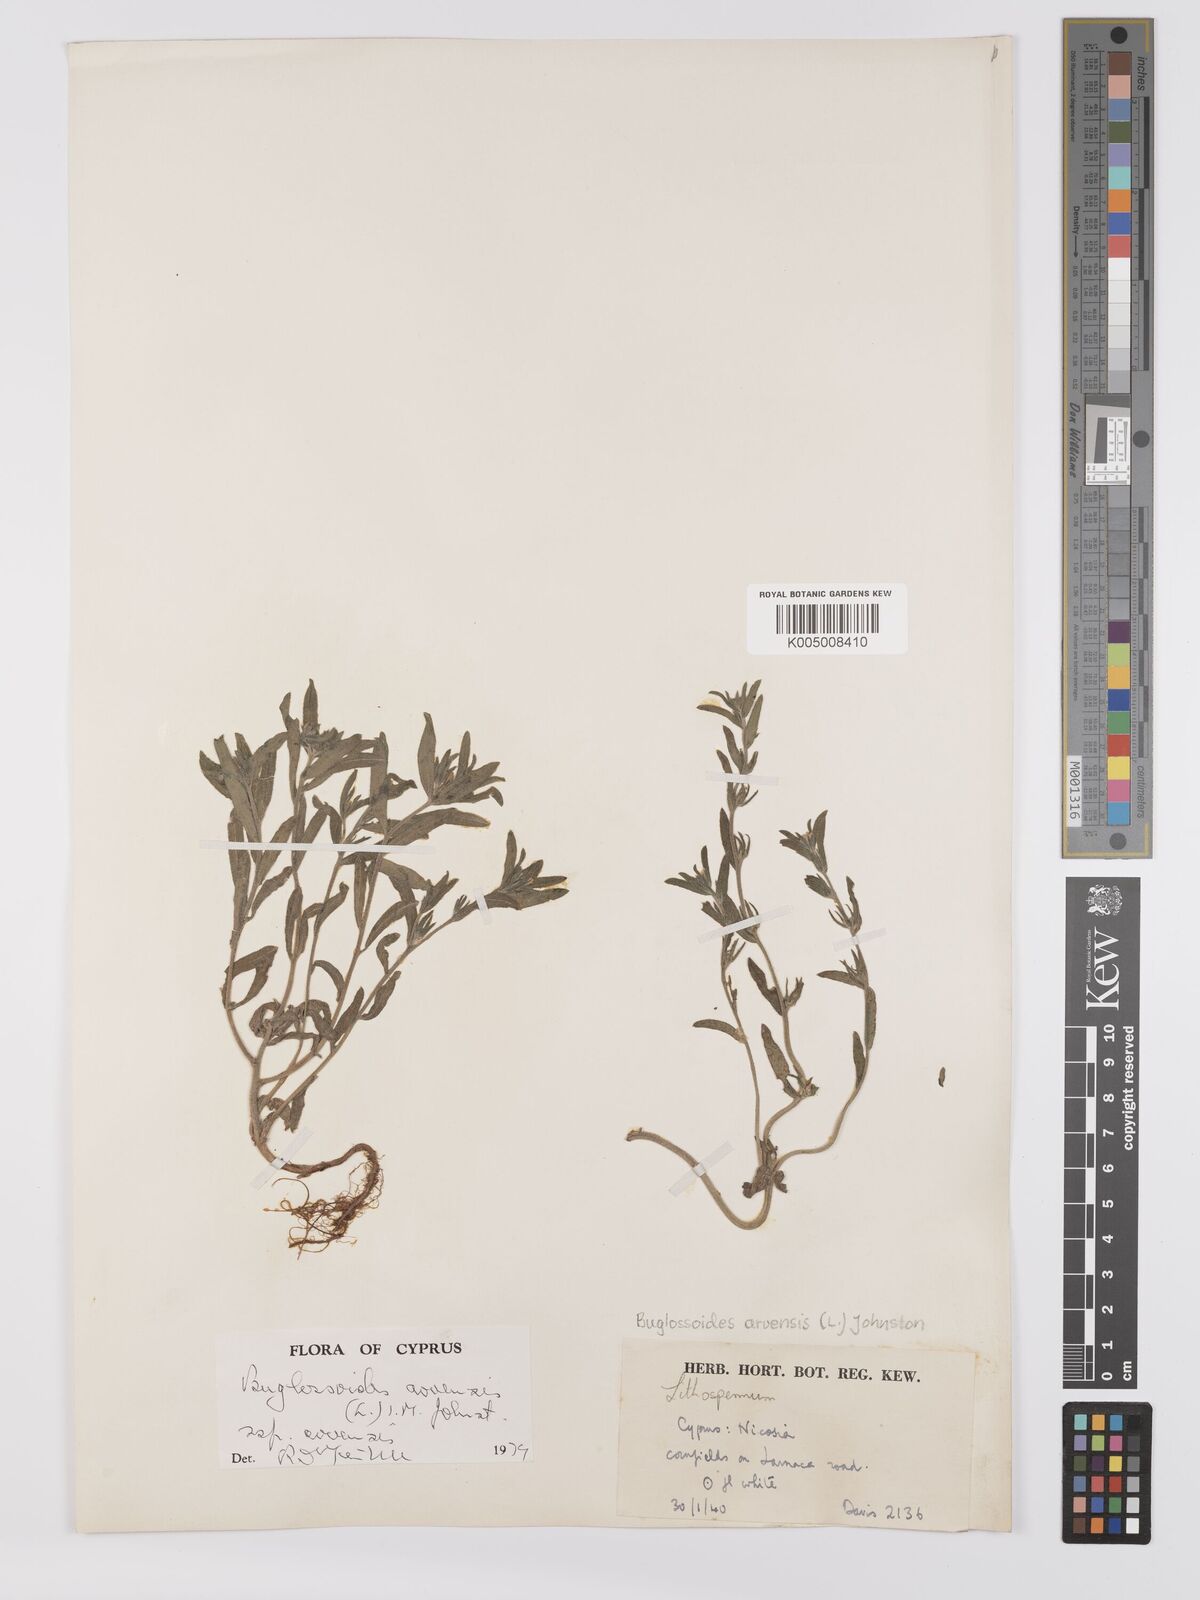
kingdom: Plantae
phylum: Tracheophyta
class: Magnoliopsida
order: Boraginales
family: Boraginaceae
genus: Buglossoides
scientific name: Buglossoides arvensis
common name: Corn gromwell
